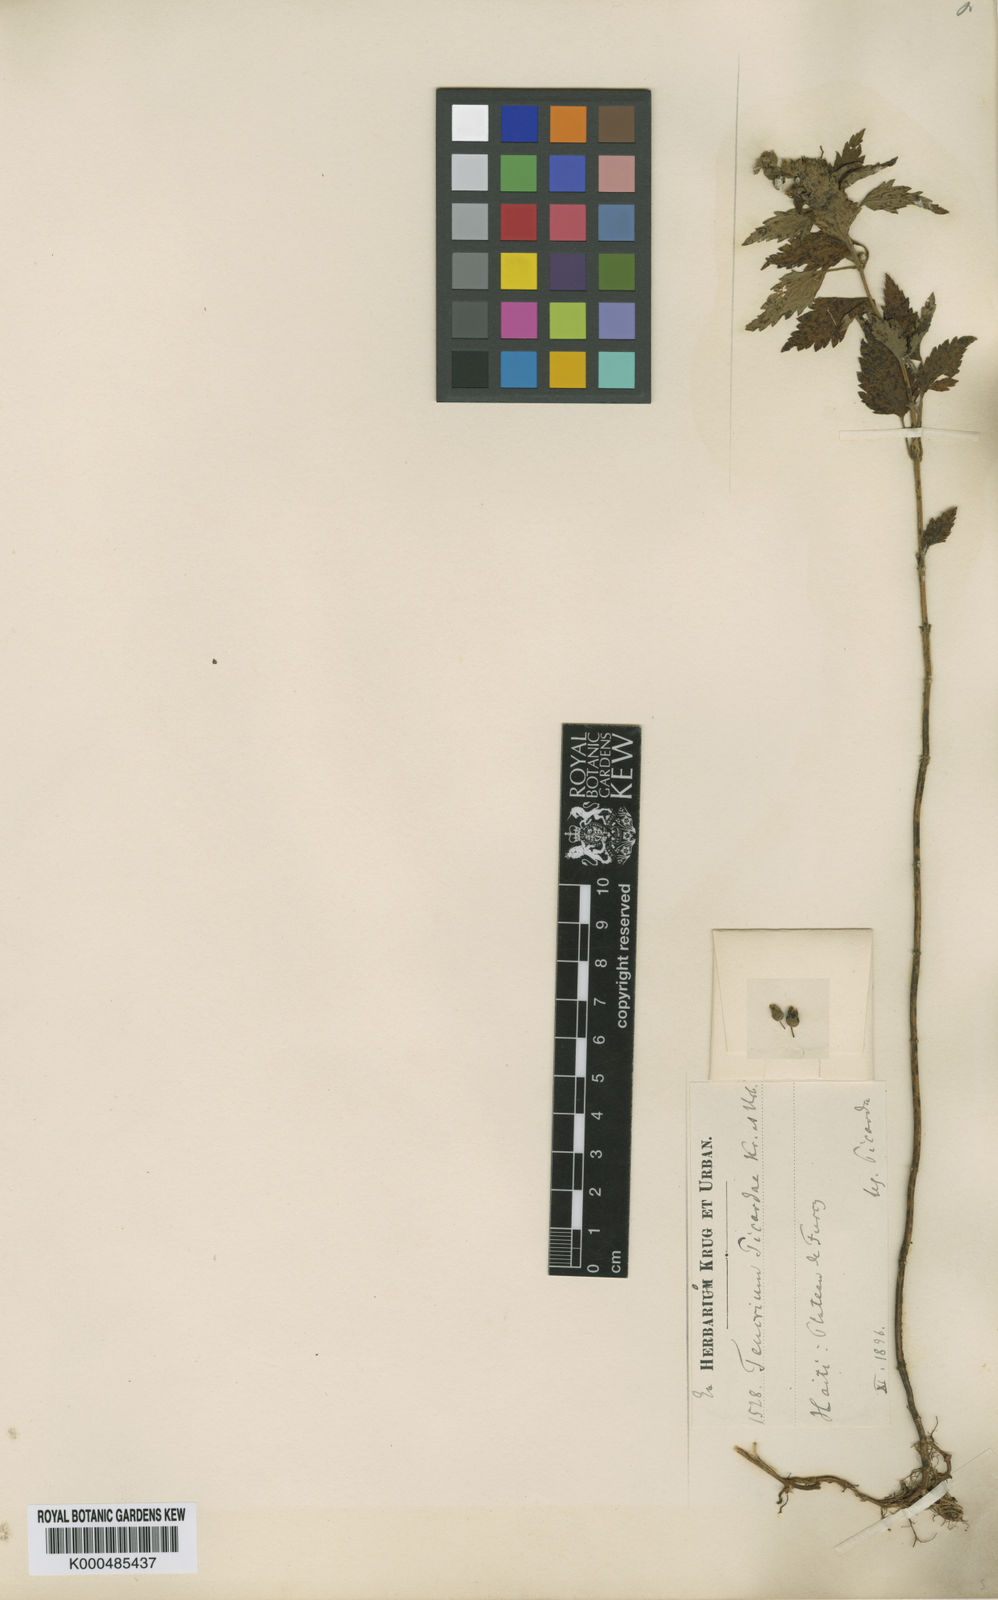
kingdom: Plantae
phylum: Tracheophyta
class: Magnoliopsida
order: Lamiales
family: Lamiaceae
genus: Teucrium
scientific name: Teucrium vesicarium
